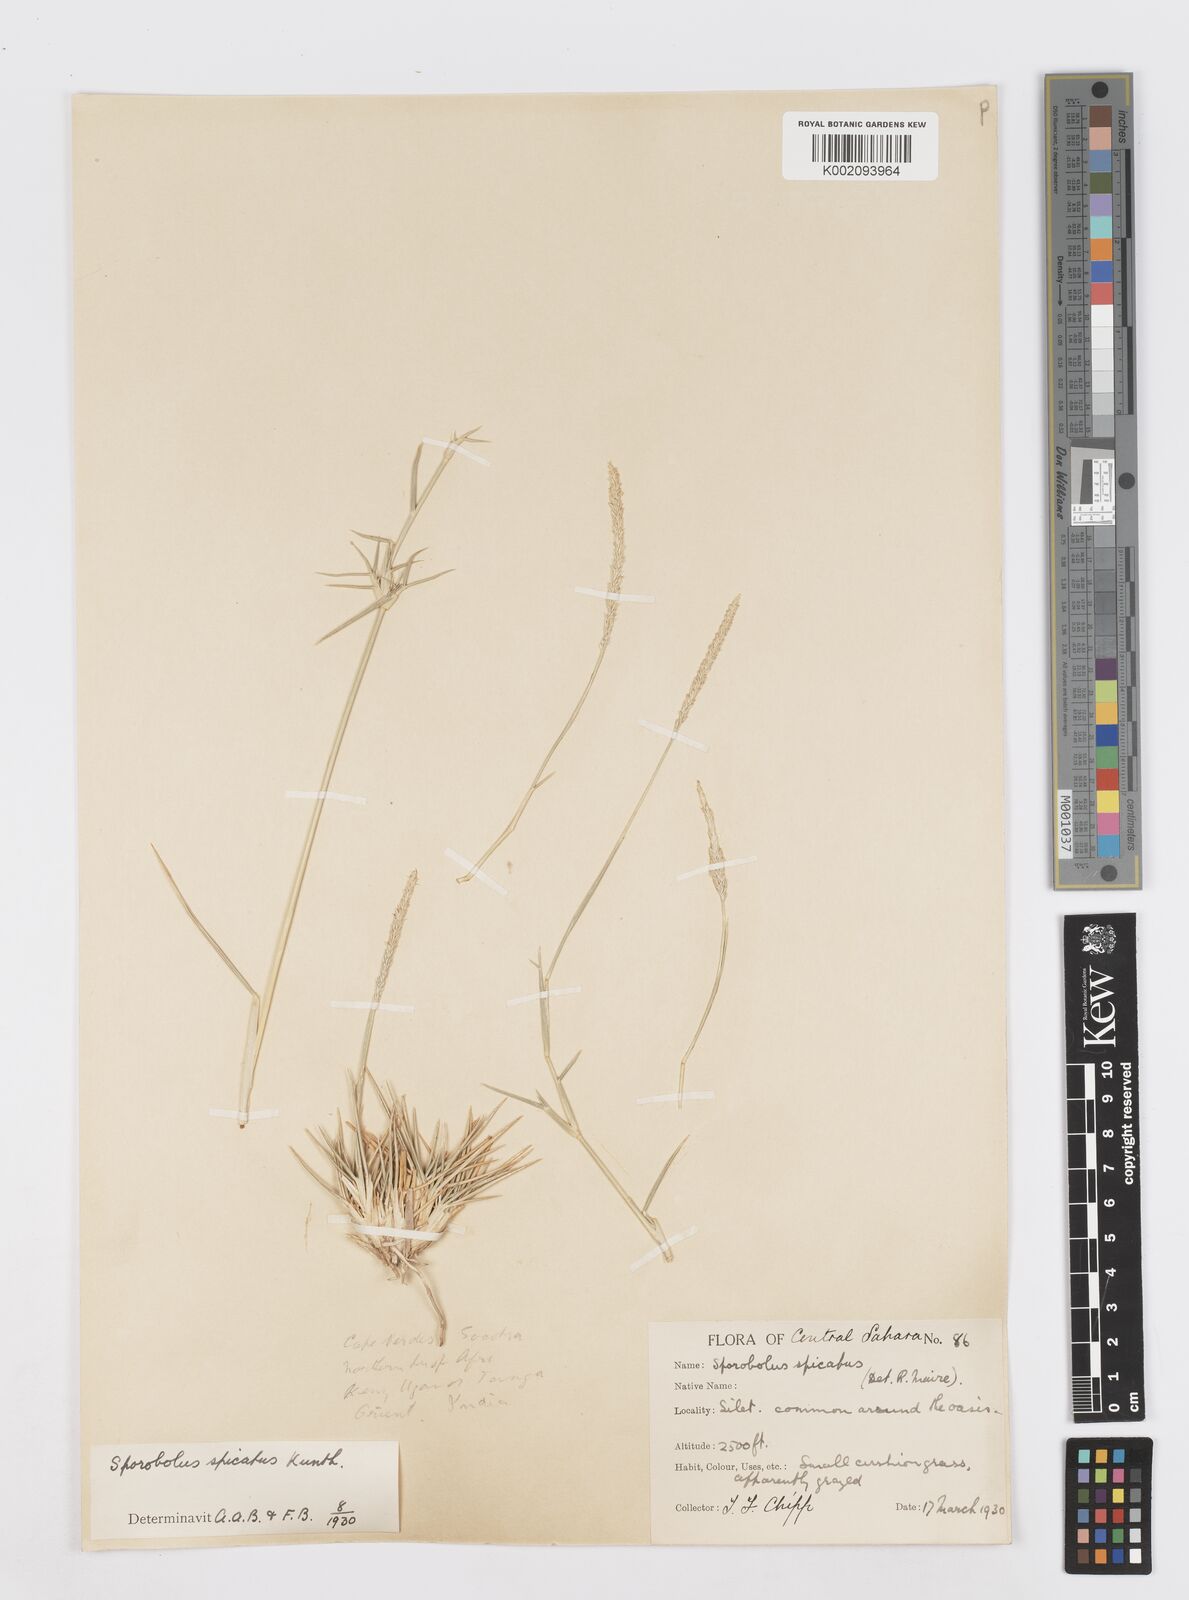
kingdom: Plantae
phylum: Tracheophyta
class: Liliopsida
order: Poales
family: Poaceae
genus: Sporobolus
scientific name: Sporobolus spicatus
